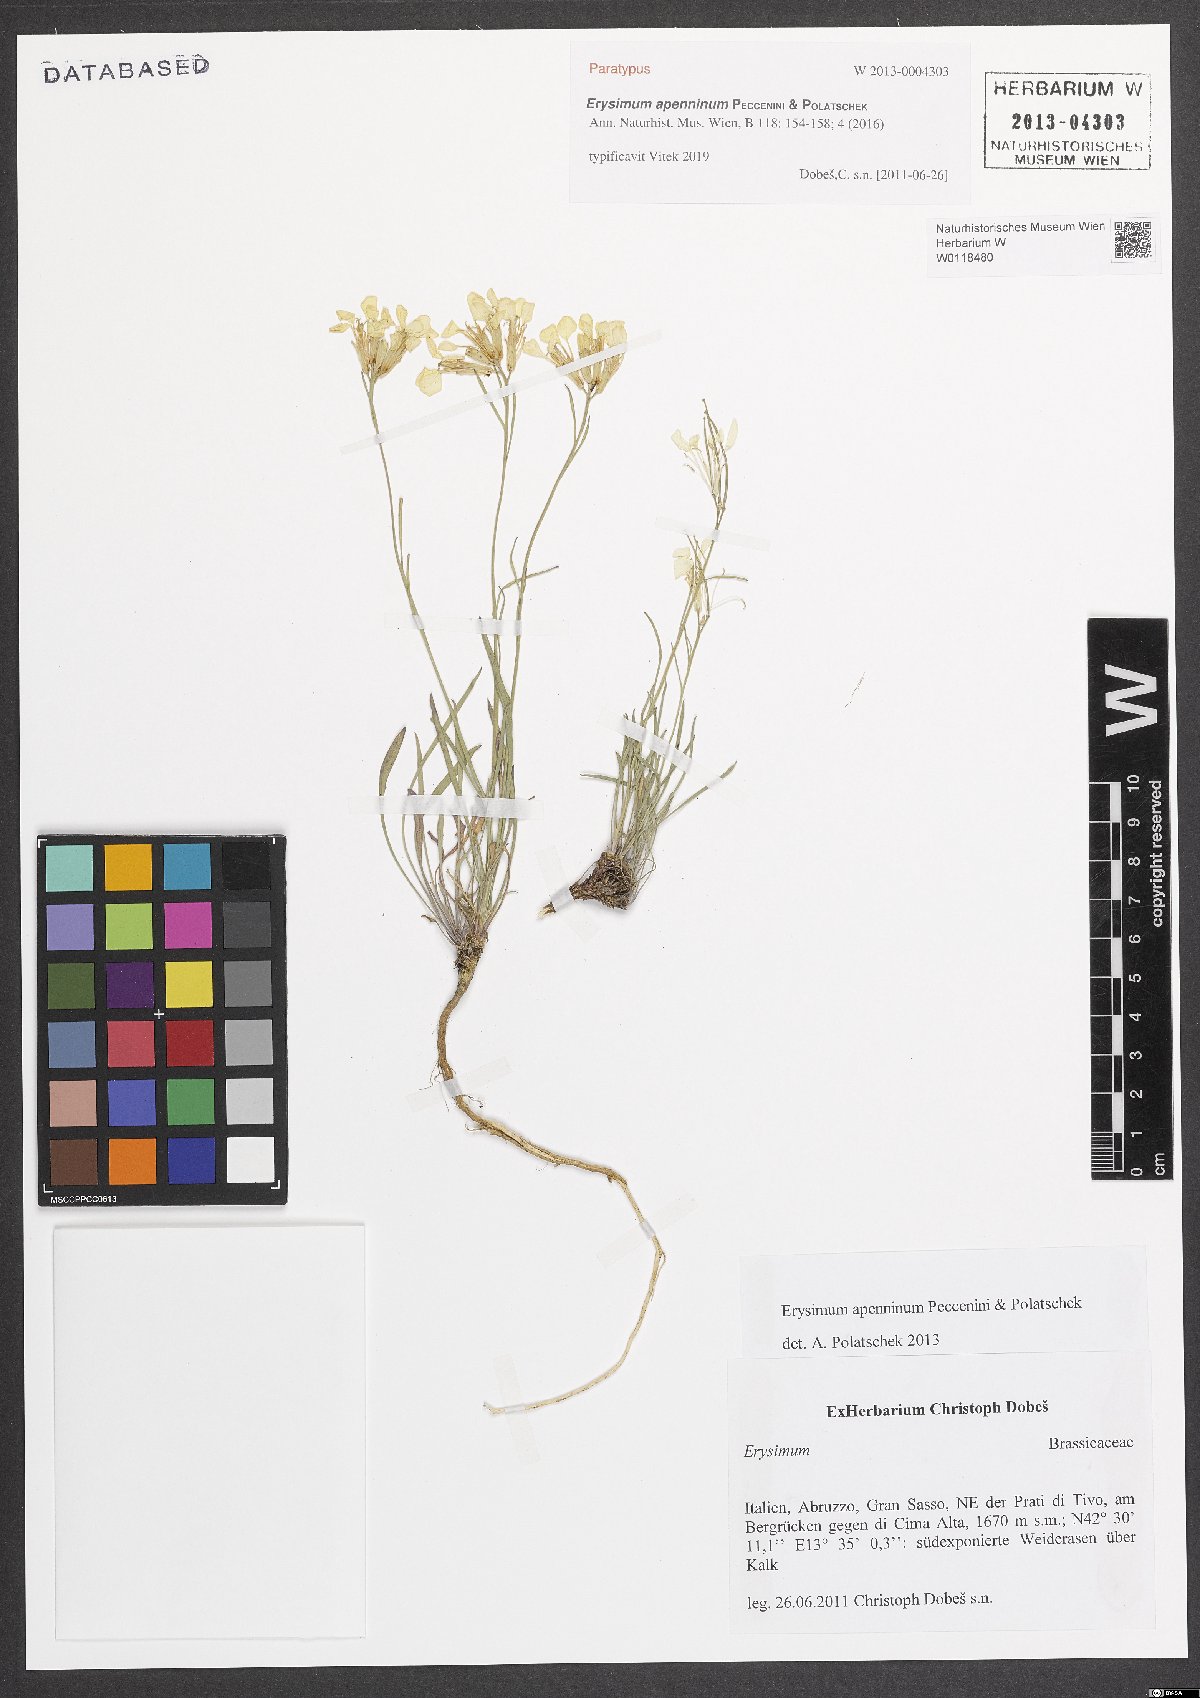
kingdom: Plantae
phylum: Tracheophyta
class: Magnoliopsida
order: Brassicales
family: Brassicaceae
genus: Erysimum
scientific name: Erysimum apenninum
